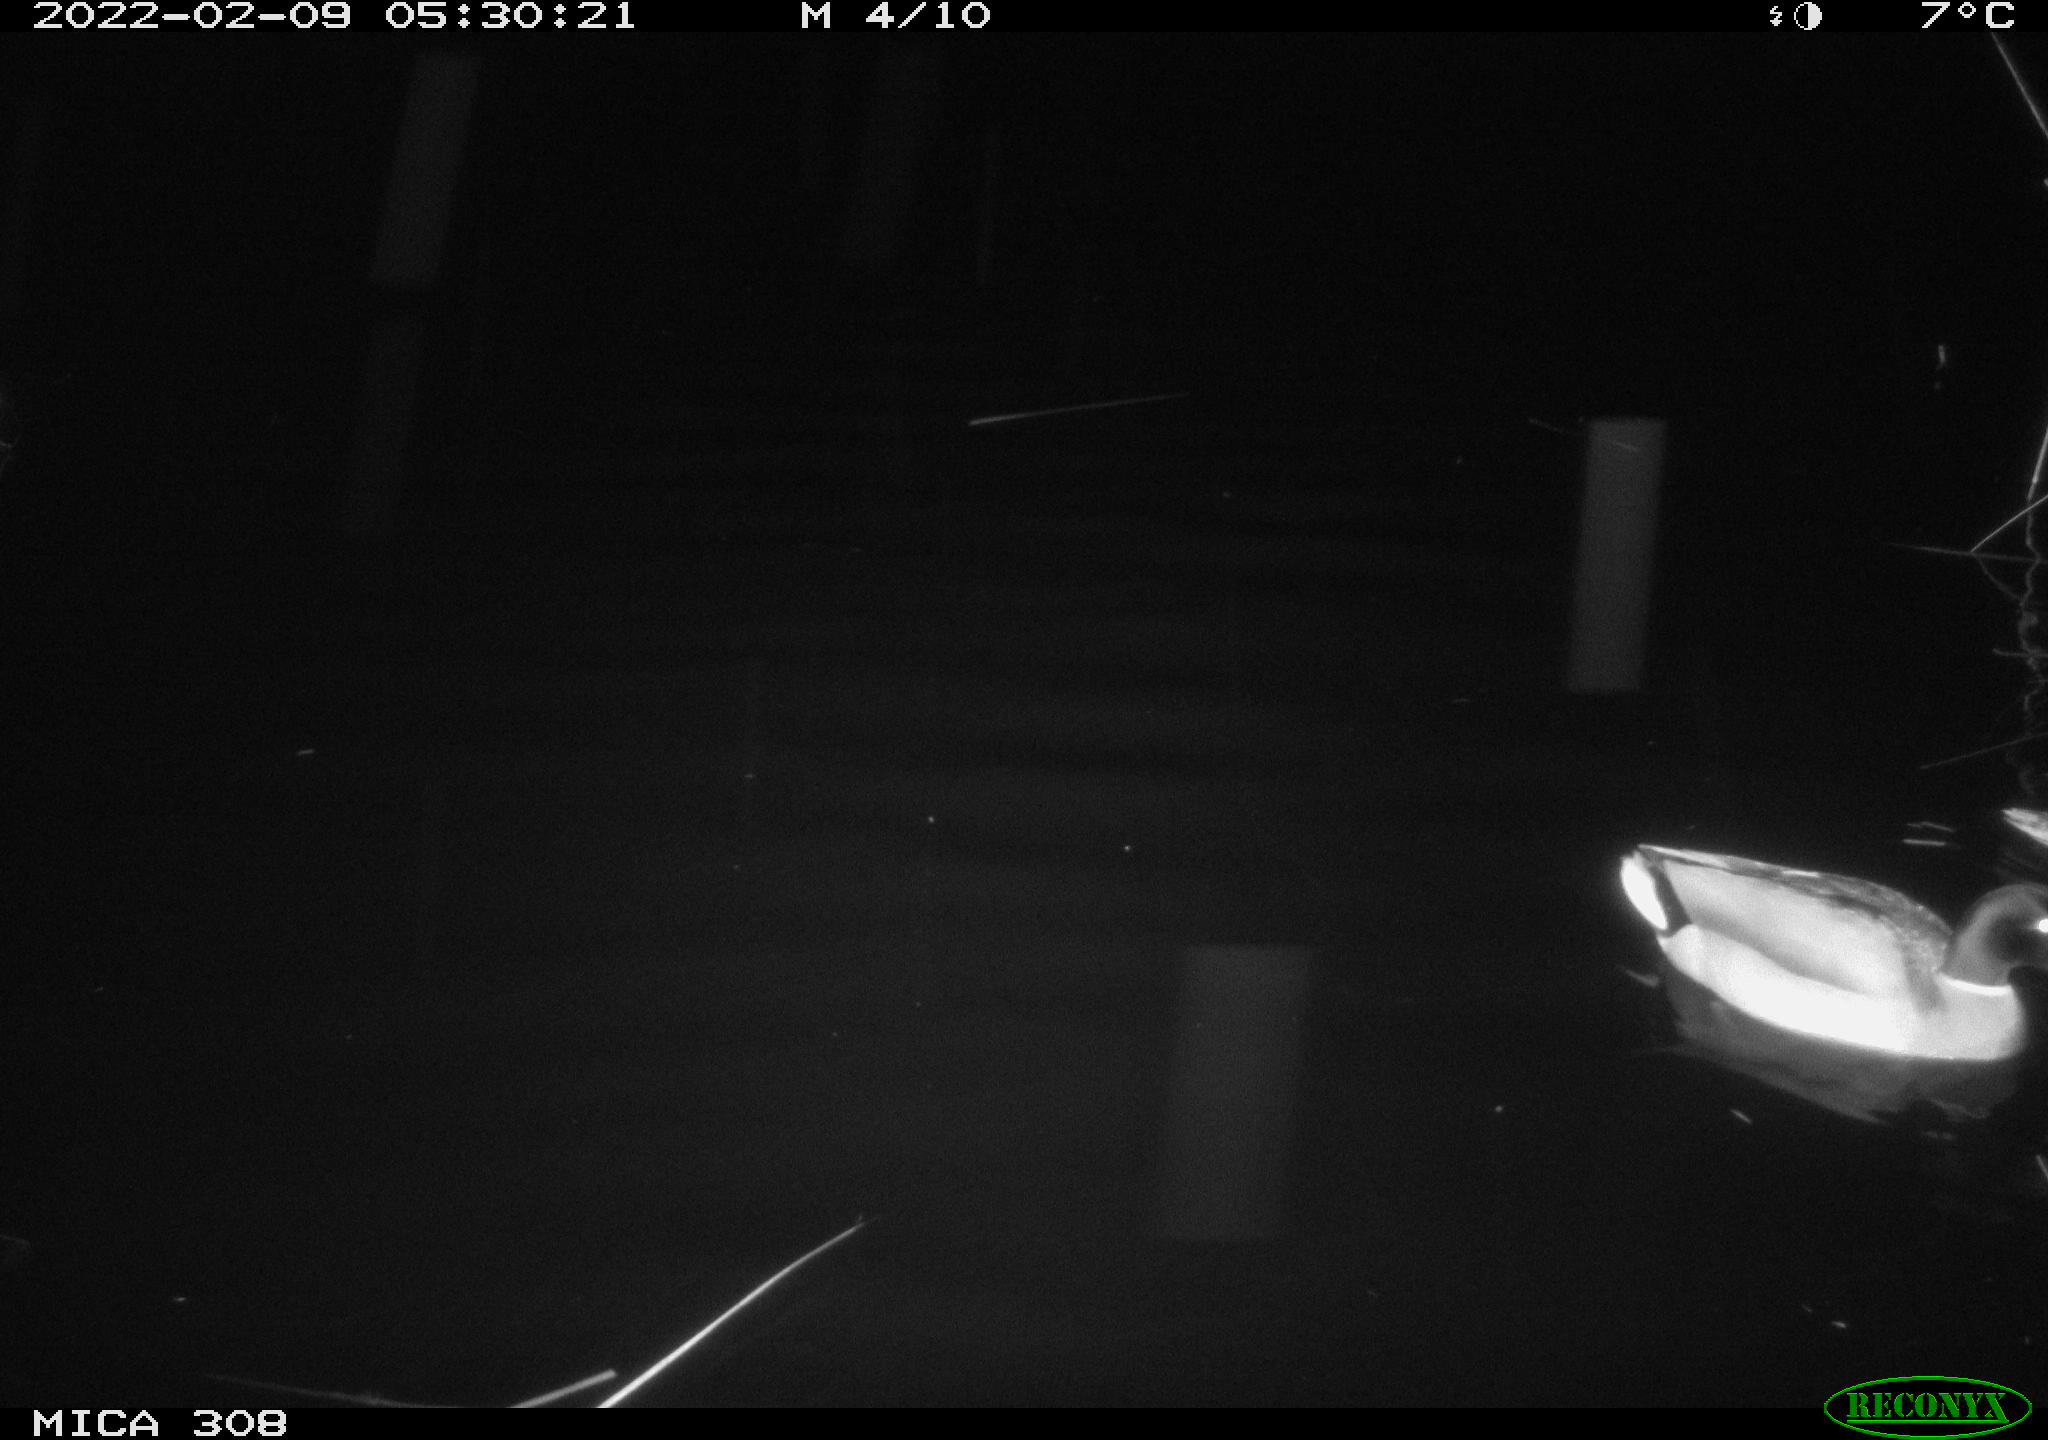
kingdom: Animalia
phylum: Chordata
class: Aves
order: Anseriformes
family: Anatidae
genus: Anas
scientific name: Anas platyrhynchos
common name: Mallard
